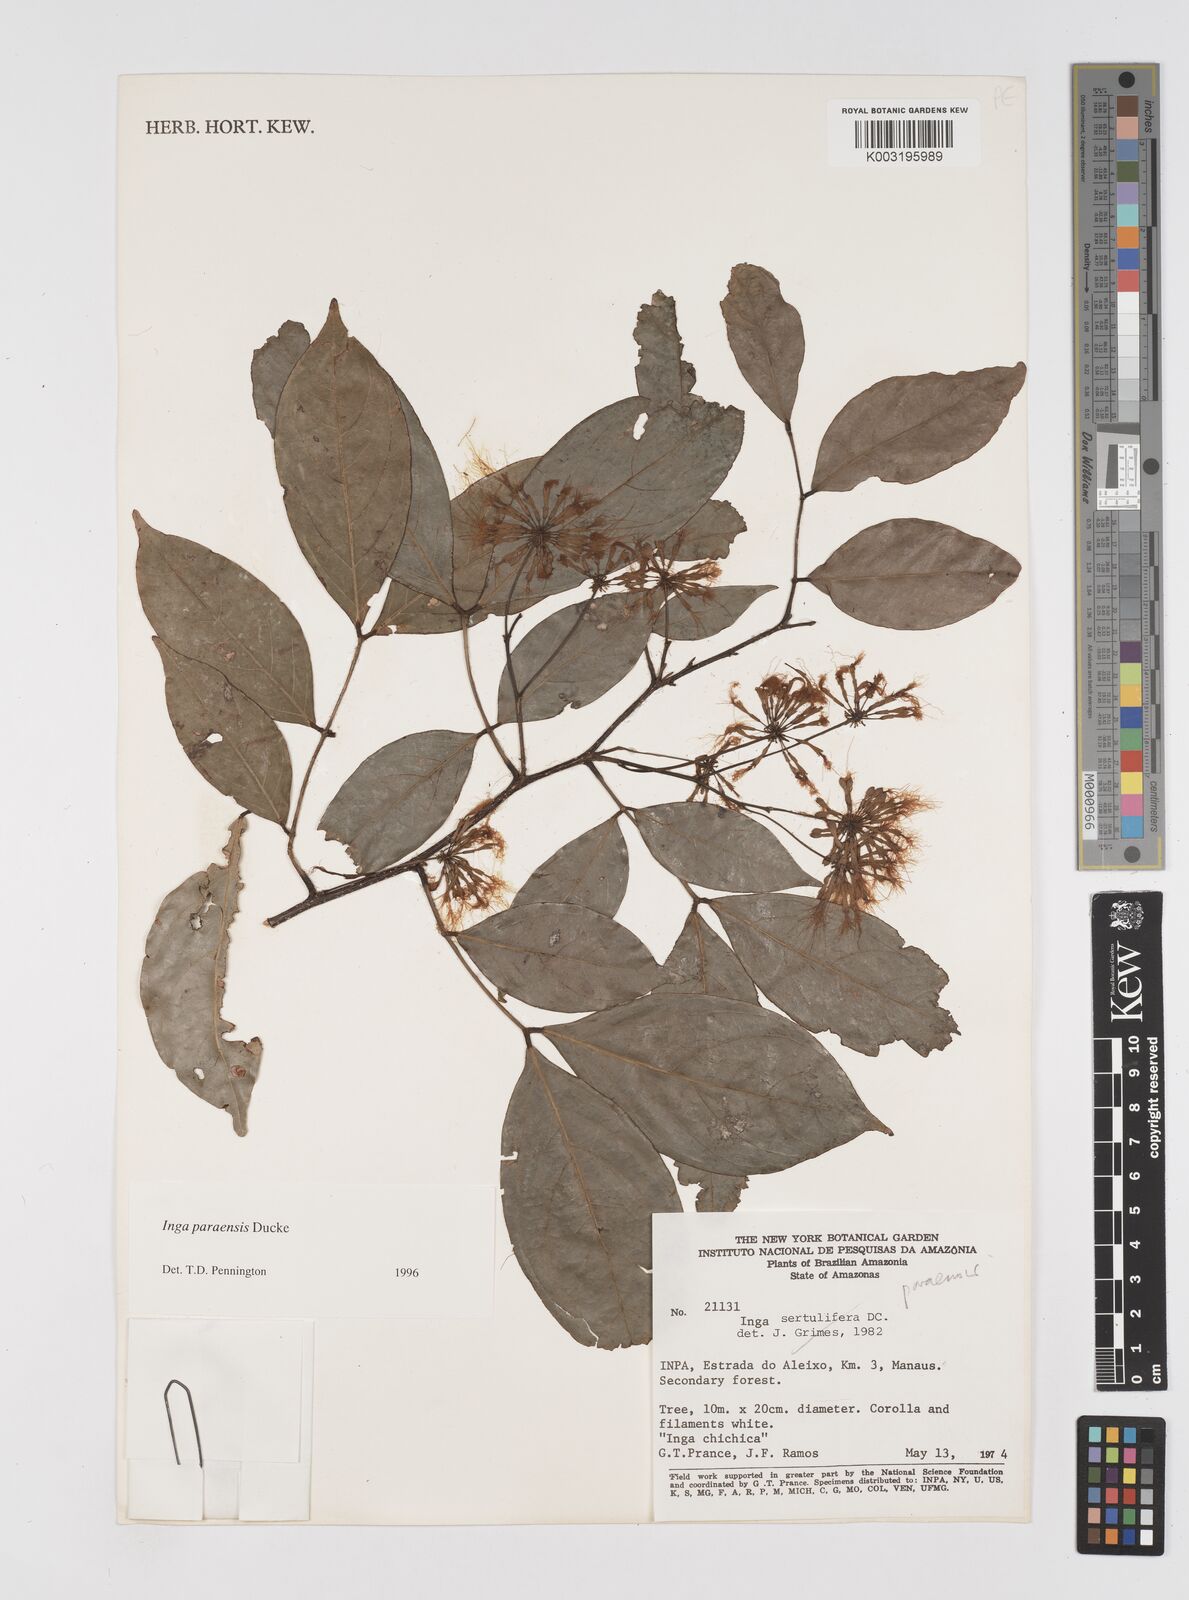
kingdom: Plantae
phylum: Tracheophyta
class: Magnoliopsida
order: Fabales
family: Fabaceae
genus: Inga
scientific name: Inga paraensis
